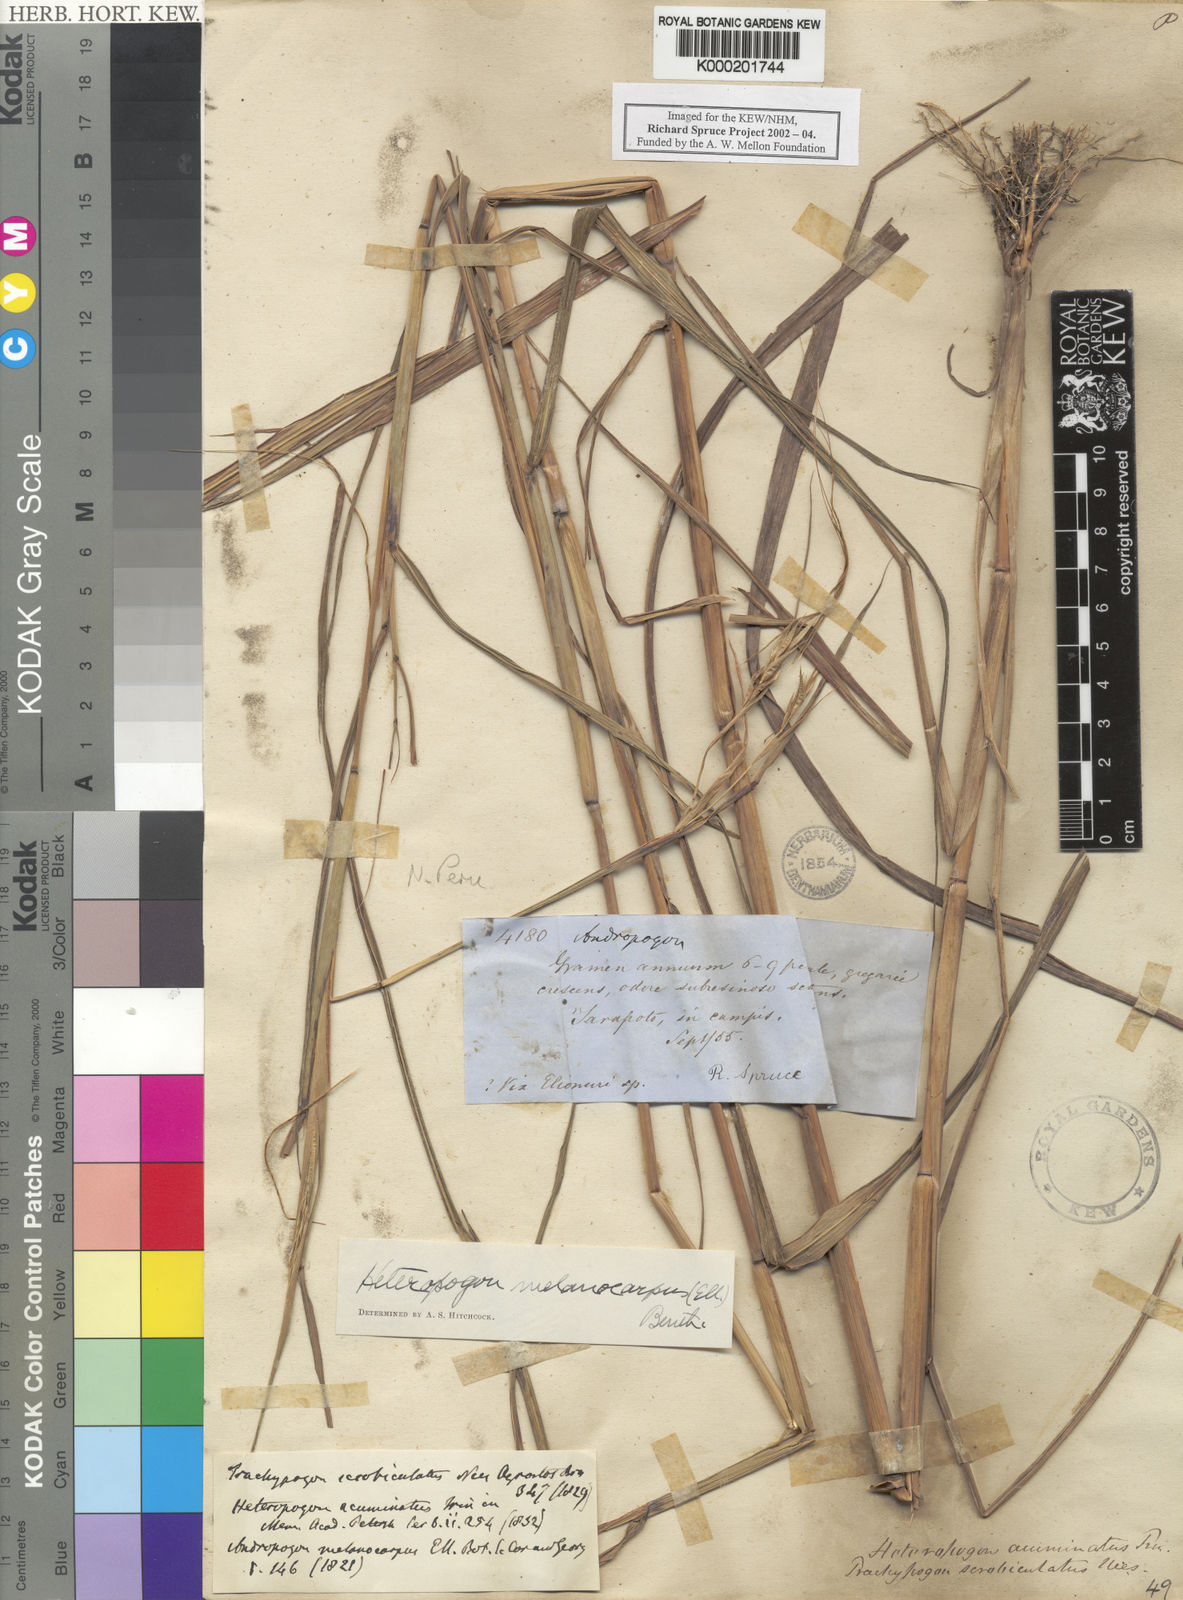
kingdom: Plantae
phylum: Tracheophyta
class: Liliopsida
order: Poales
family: Poaceae
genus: Heteropogon
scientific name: Heteropogon melanocarpus
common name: Sweet tanglehead
